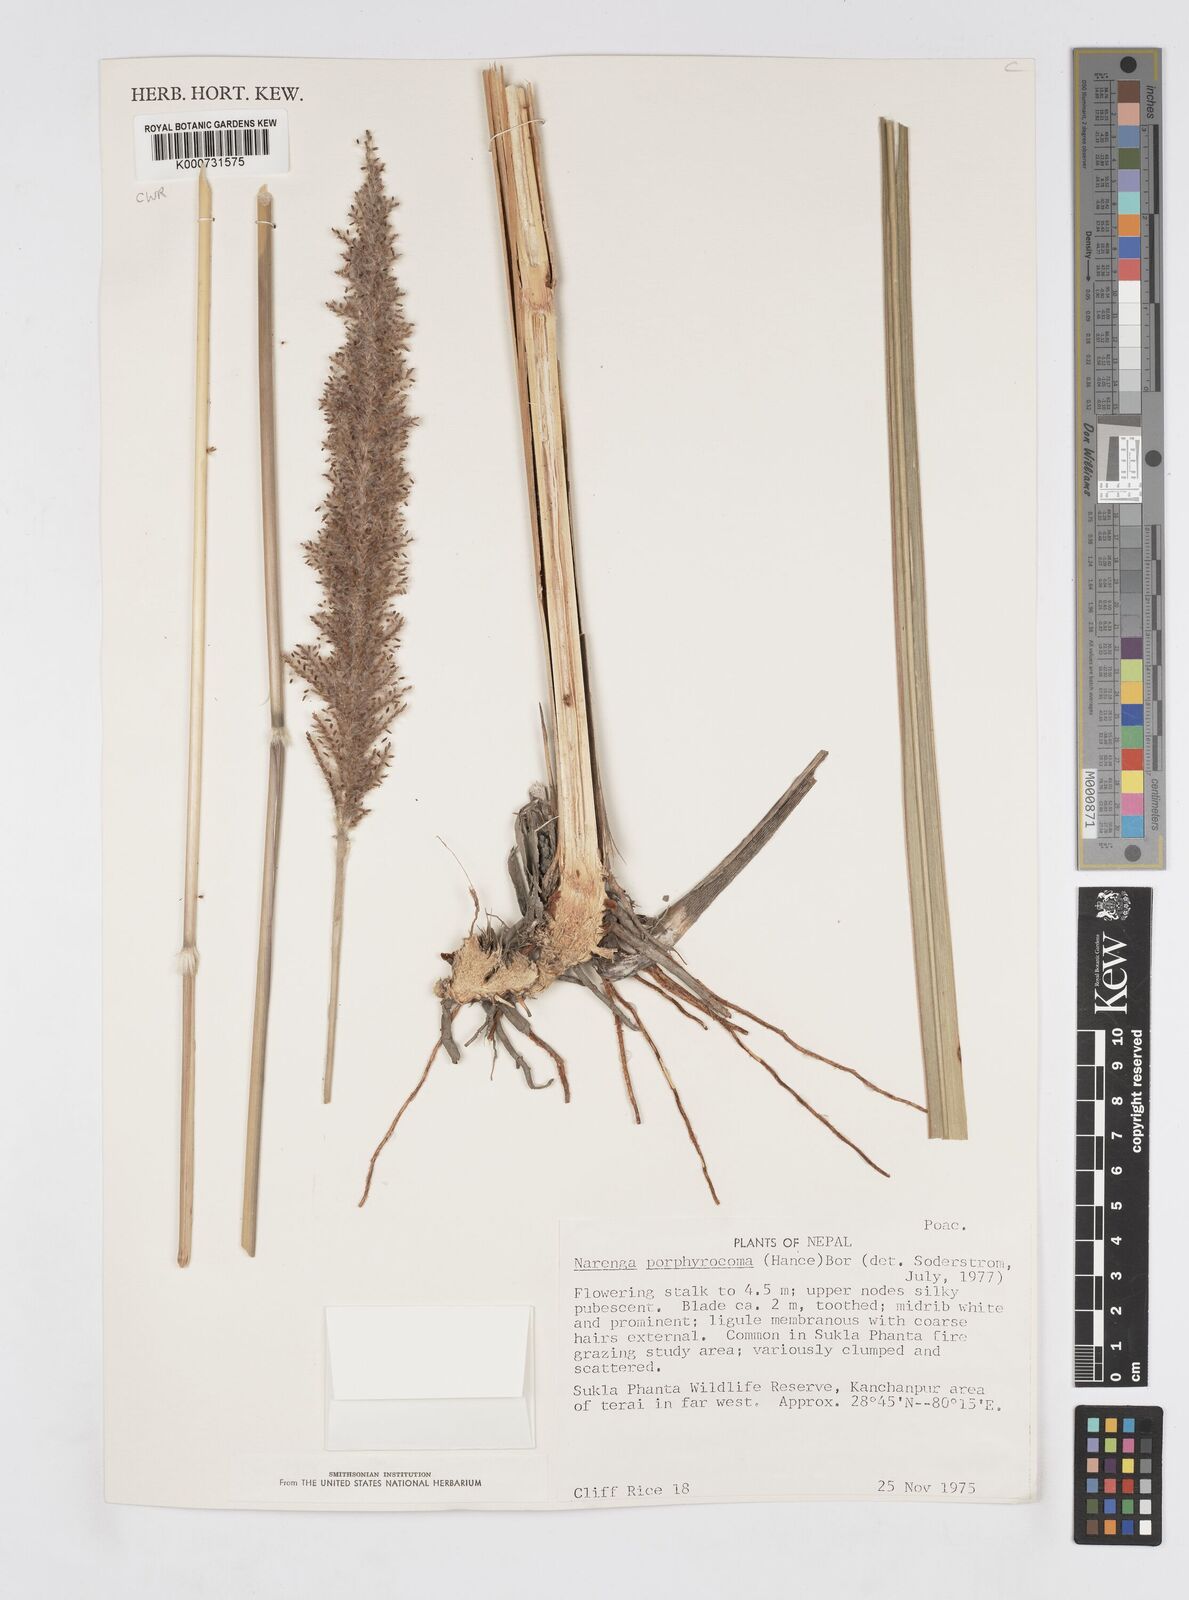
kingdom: Plantae
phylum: Tracheophyta
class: Liliopsida
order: Poales
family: Poaceae
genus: Narenga
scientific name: Narenga porphyrocoma
